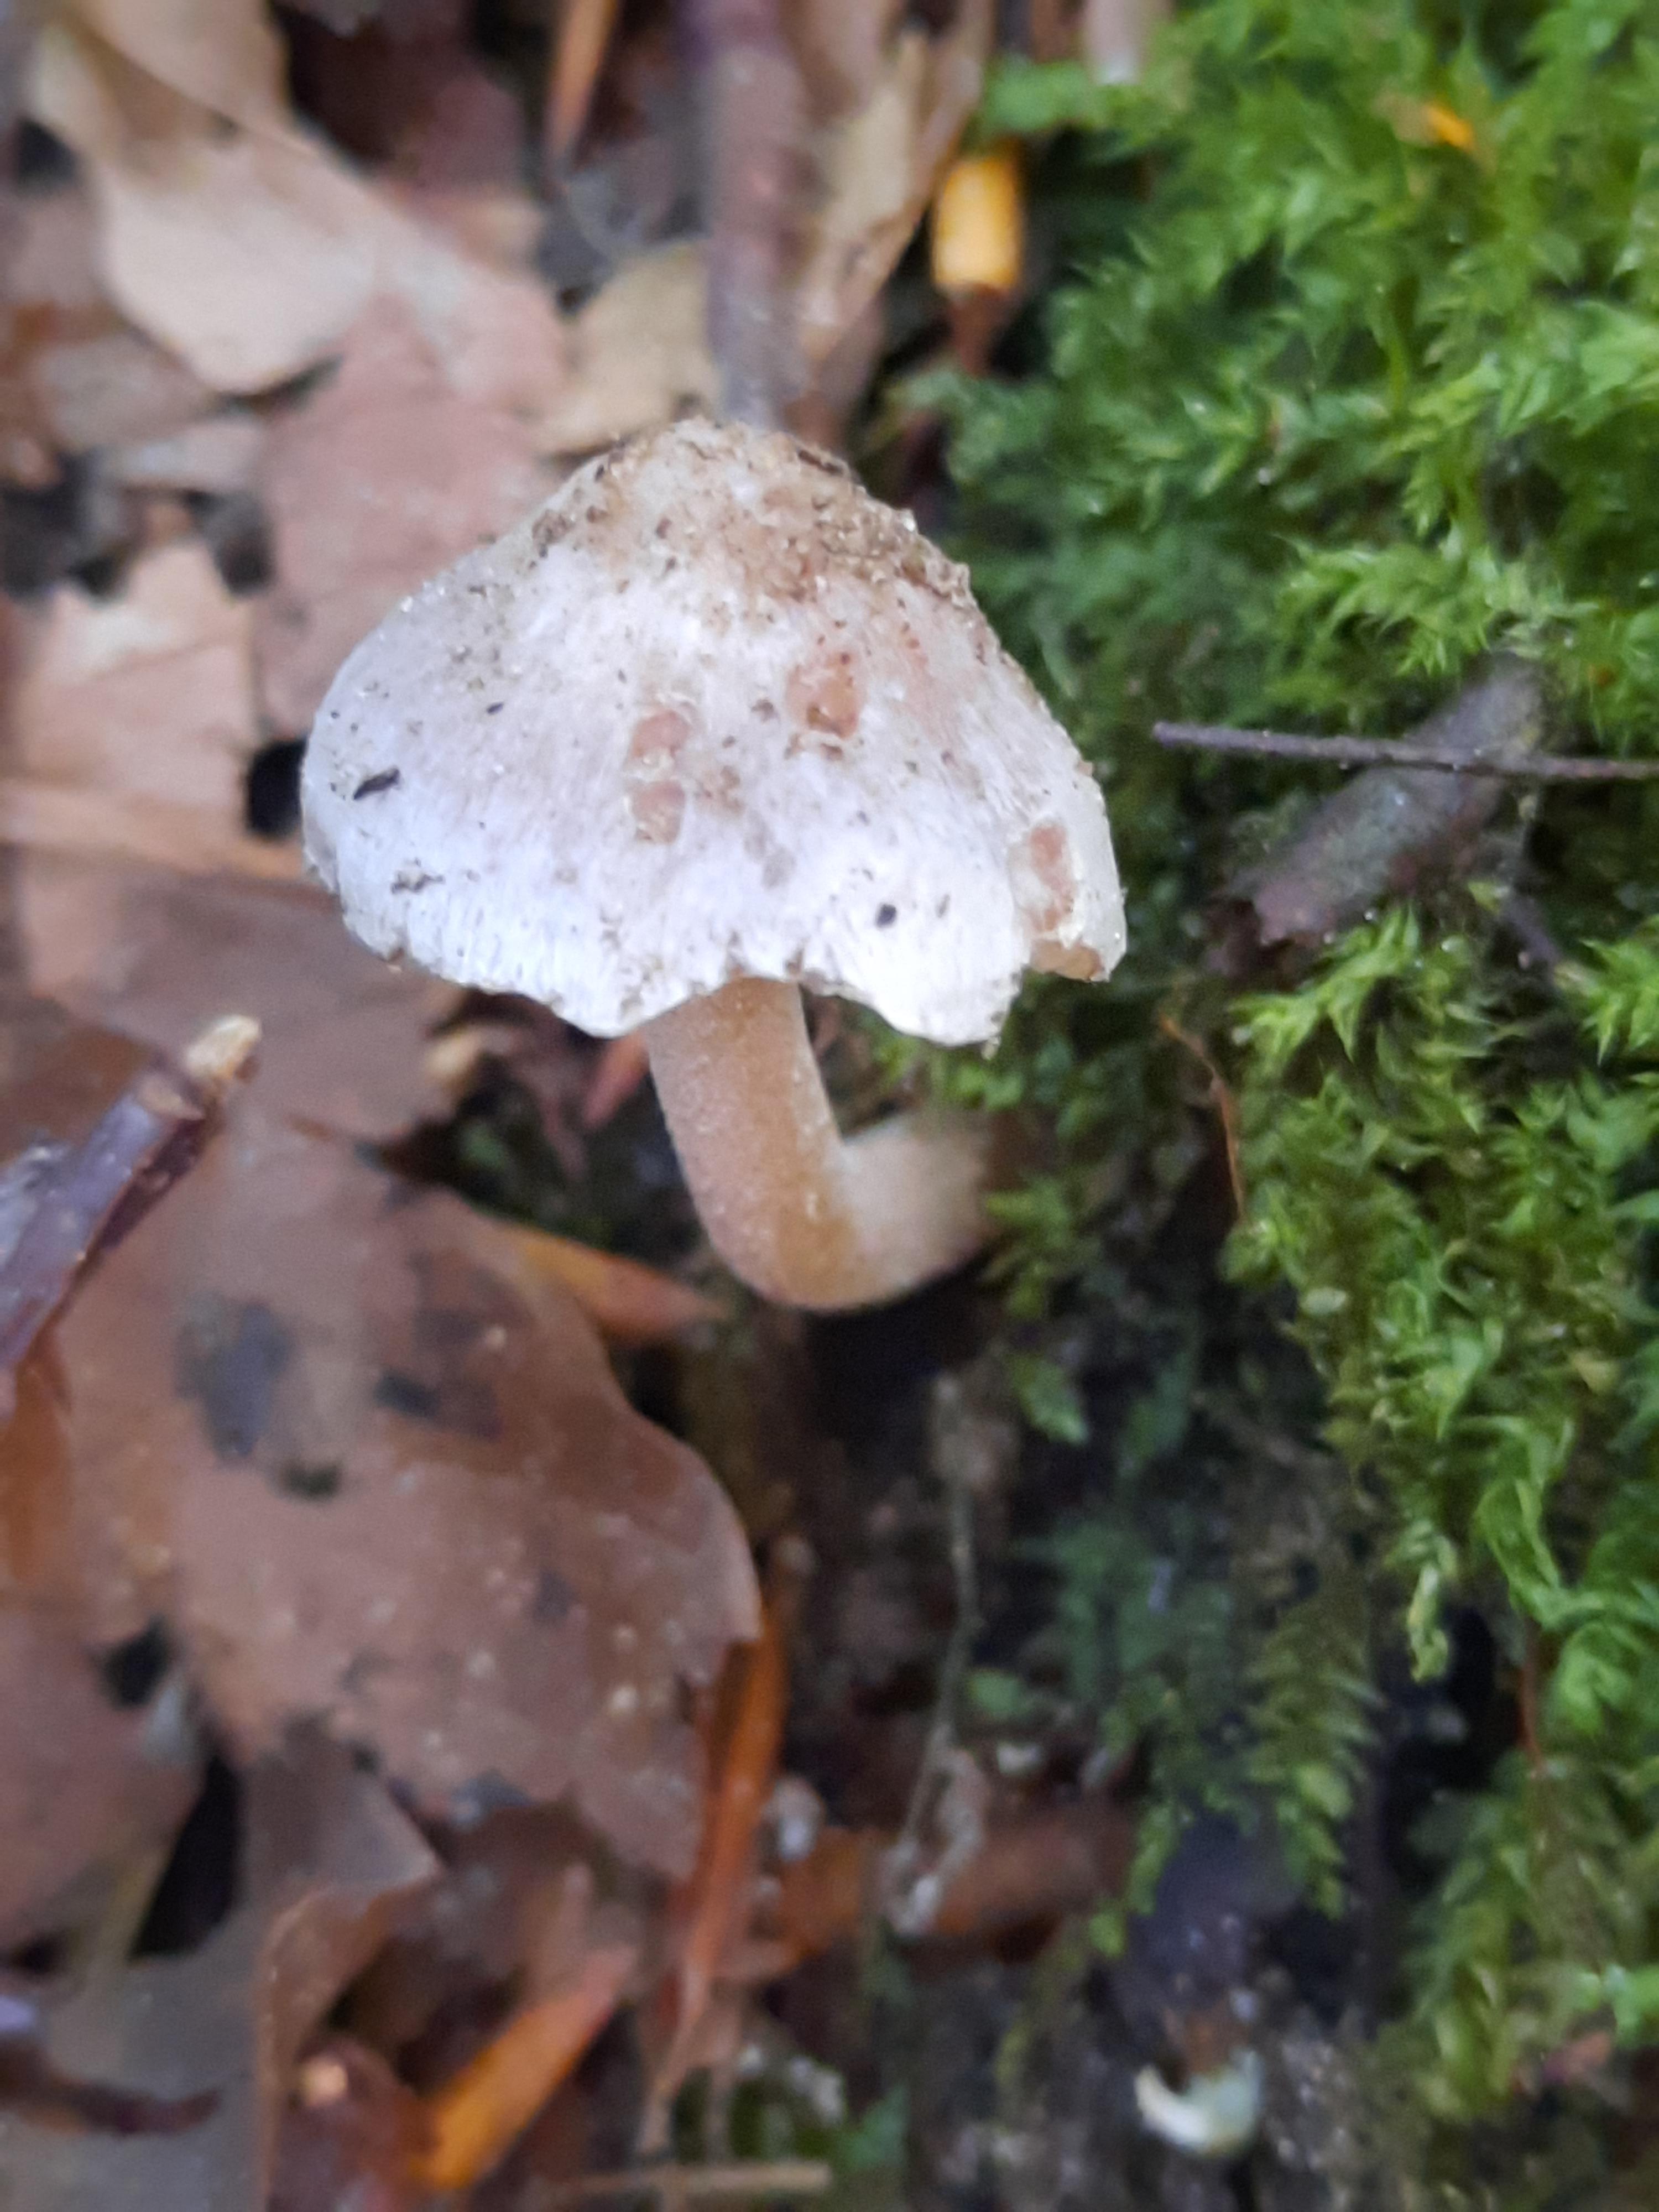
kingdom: Fungi
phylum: Basidiomycota
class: Agaricomycetes
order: Agaricales
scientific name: Agaricales
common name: champignonordenen
